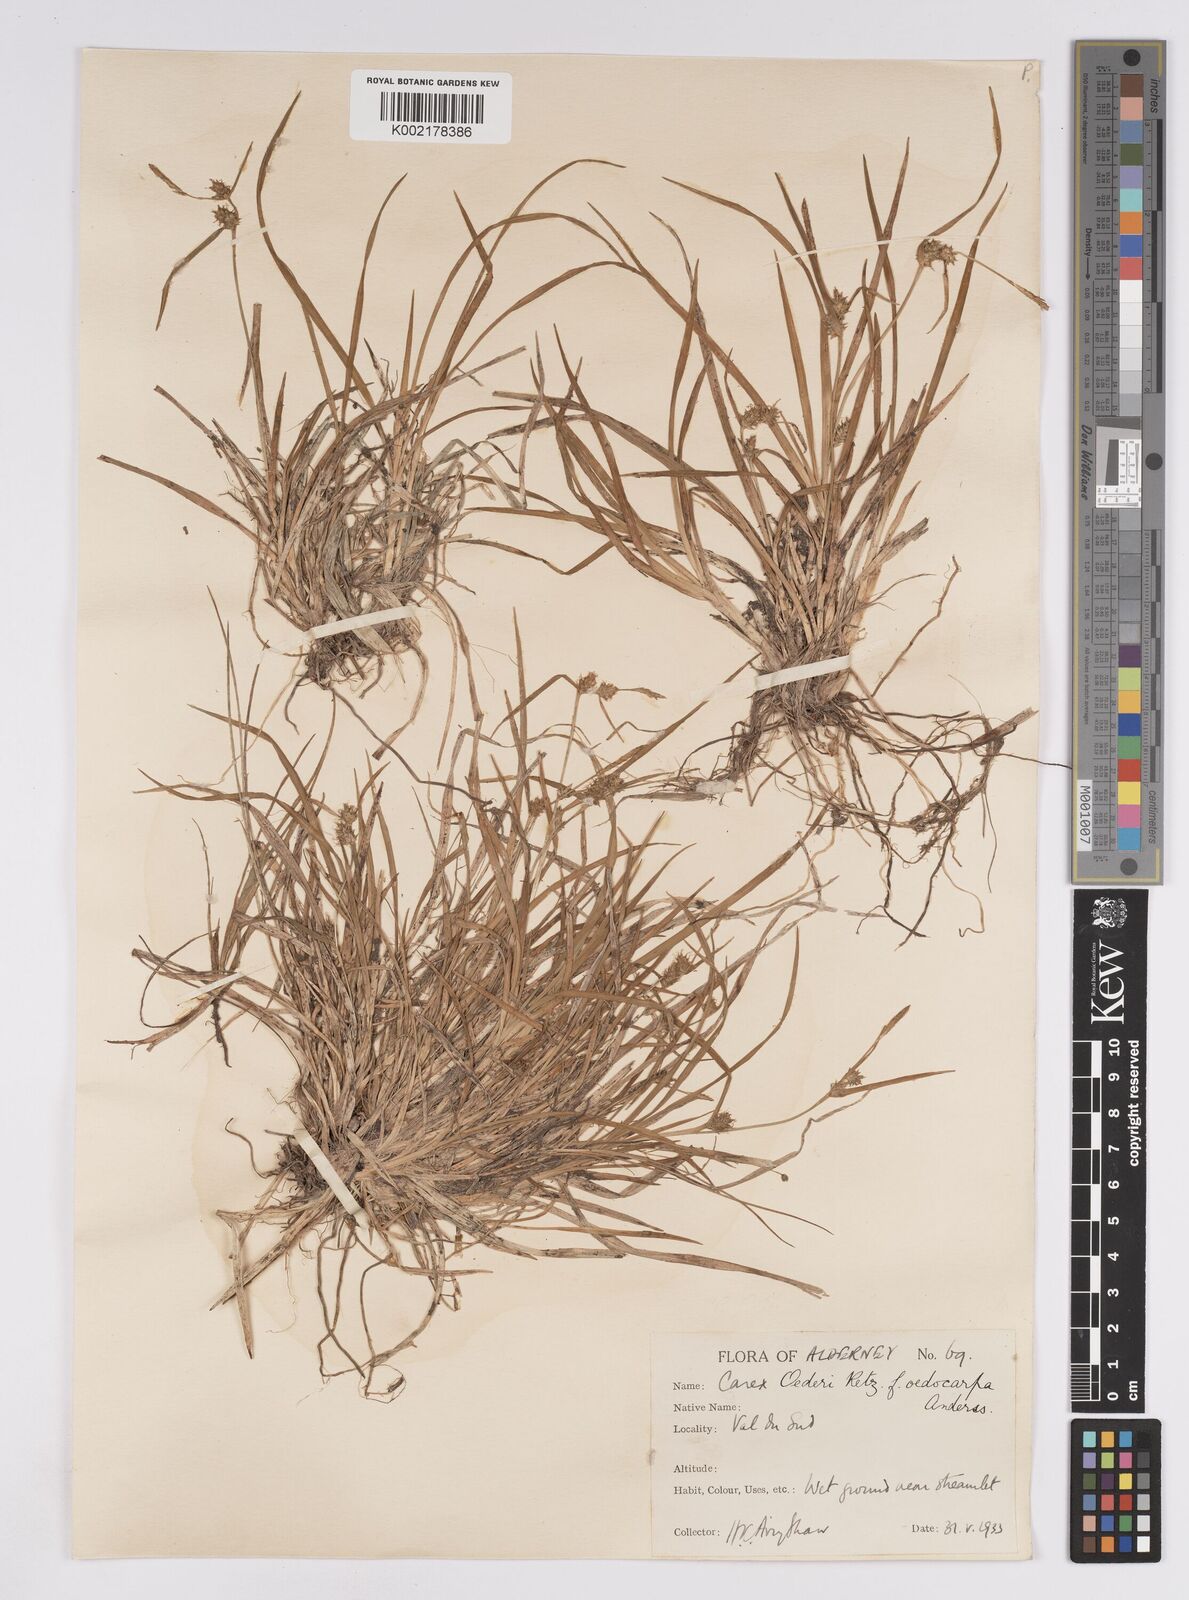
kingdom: Plantae
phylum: Tracheophyta
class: Liliopsida
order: Poales
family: Cyperaceae
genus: Carex
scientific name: Carex demissa
